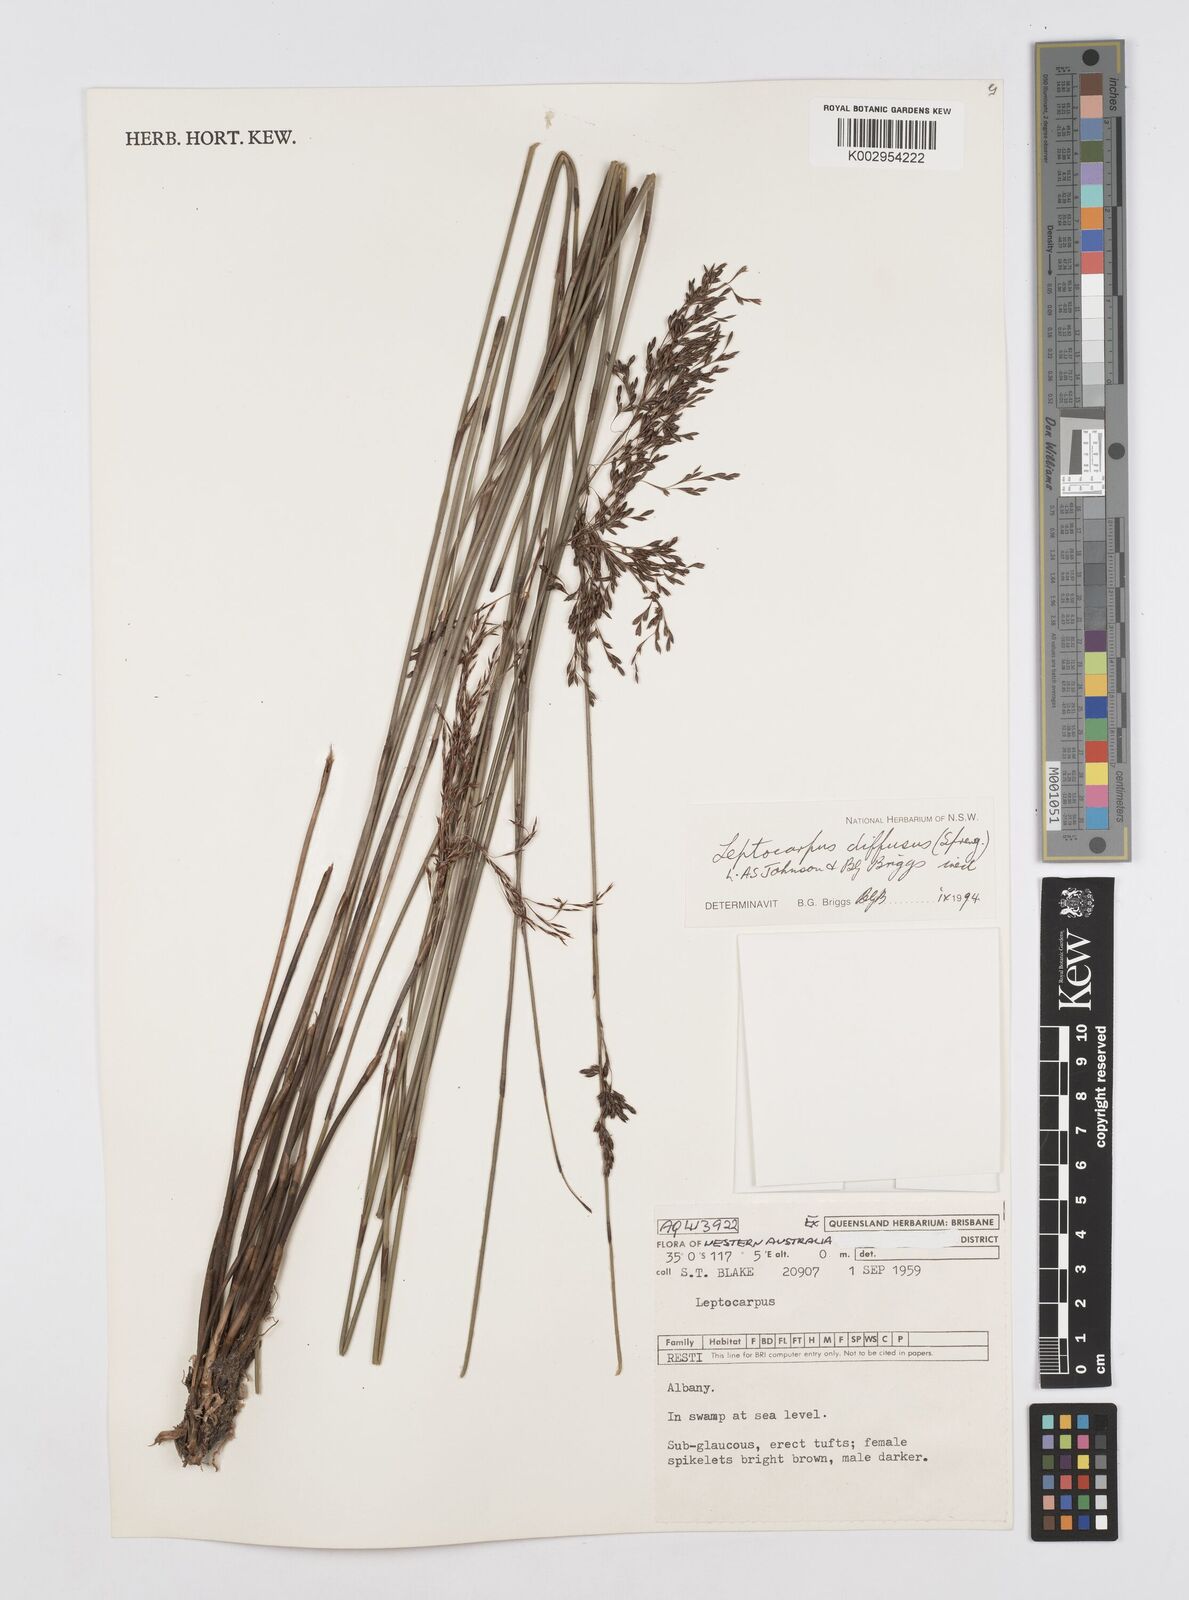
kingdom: Plantae
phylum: Tracheophyta
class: Liliopsida
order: Poales
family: Restionaceae
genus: Leptocarpus
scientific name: Leptocarpus laxus
